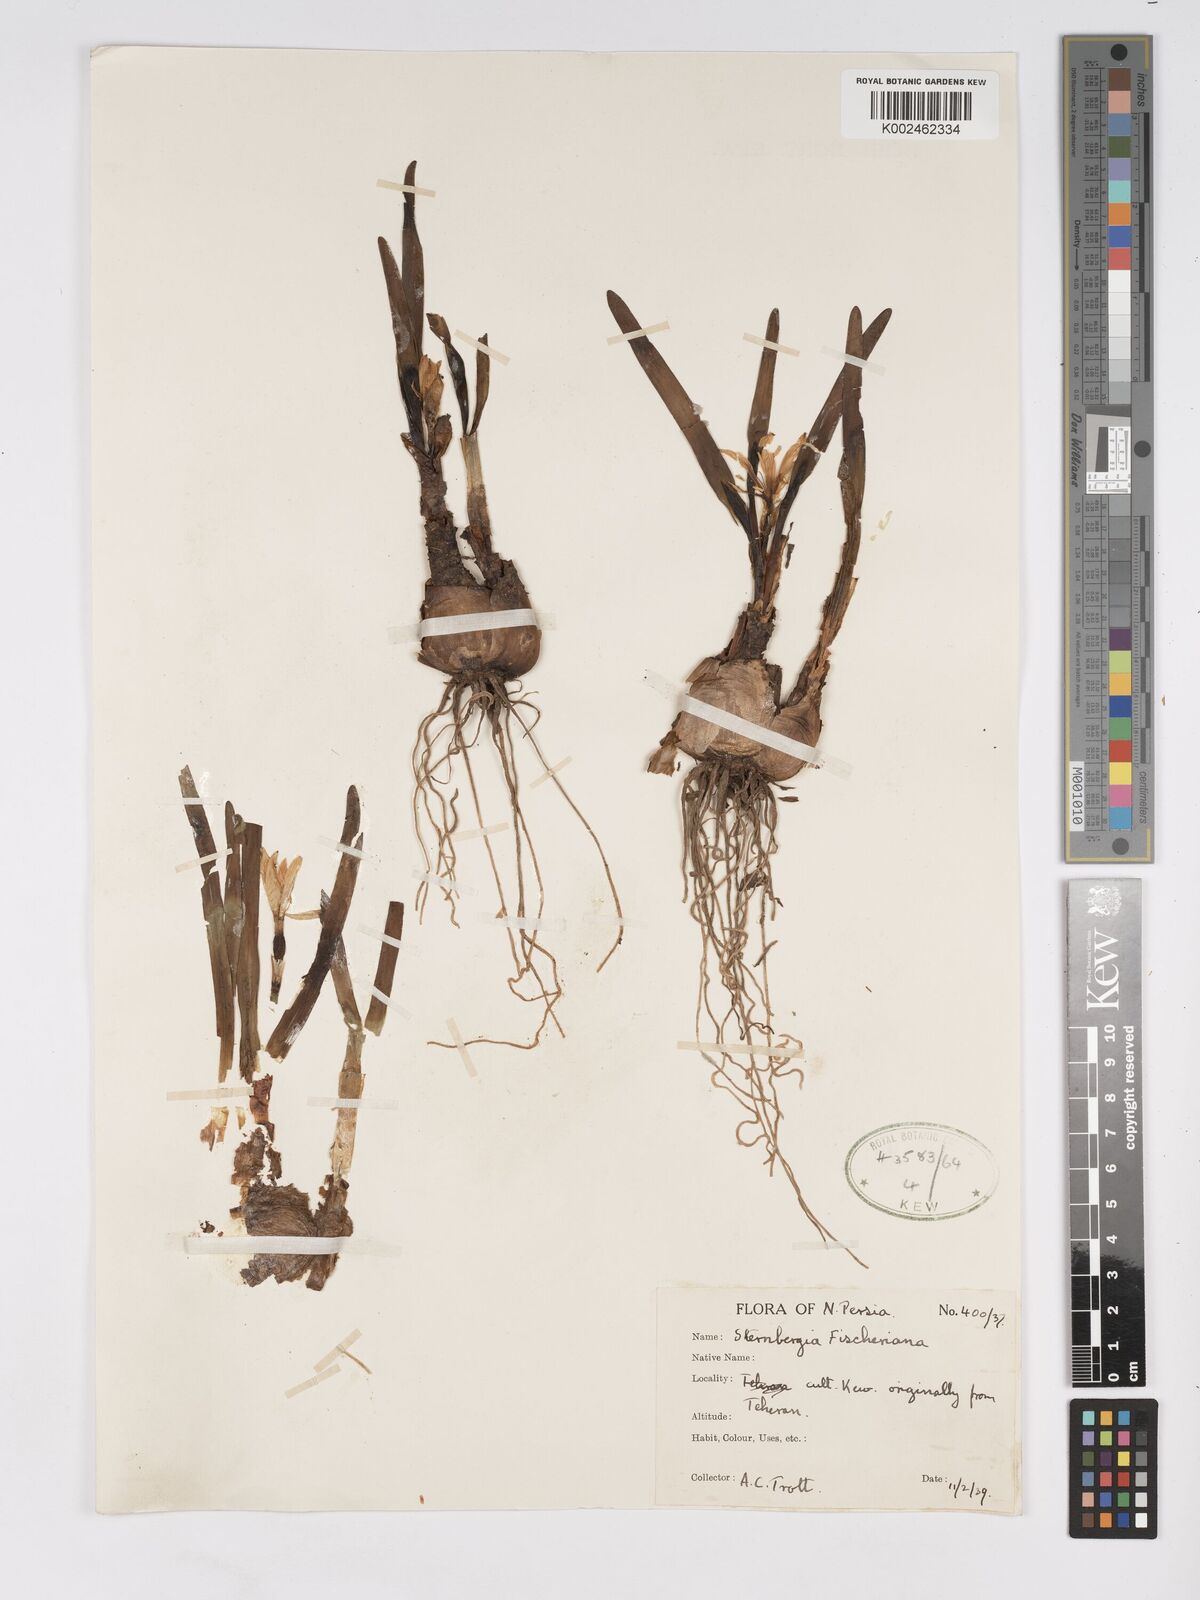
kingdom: Plantae
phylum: Tracheophyta
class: Liliopsida
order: Asparagales
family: Amaryllidaceae
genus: Sternbergia
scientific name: Sternbergia vernalis
